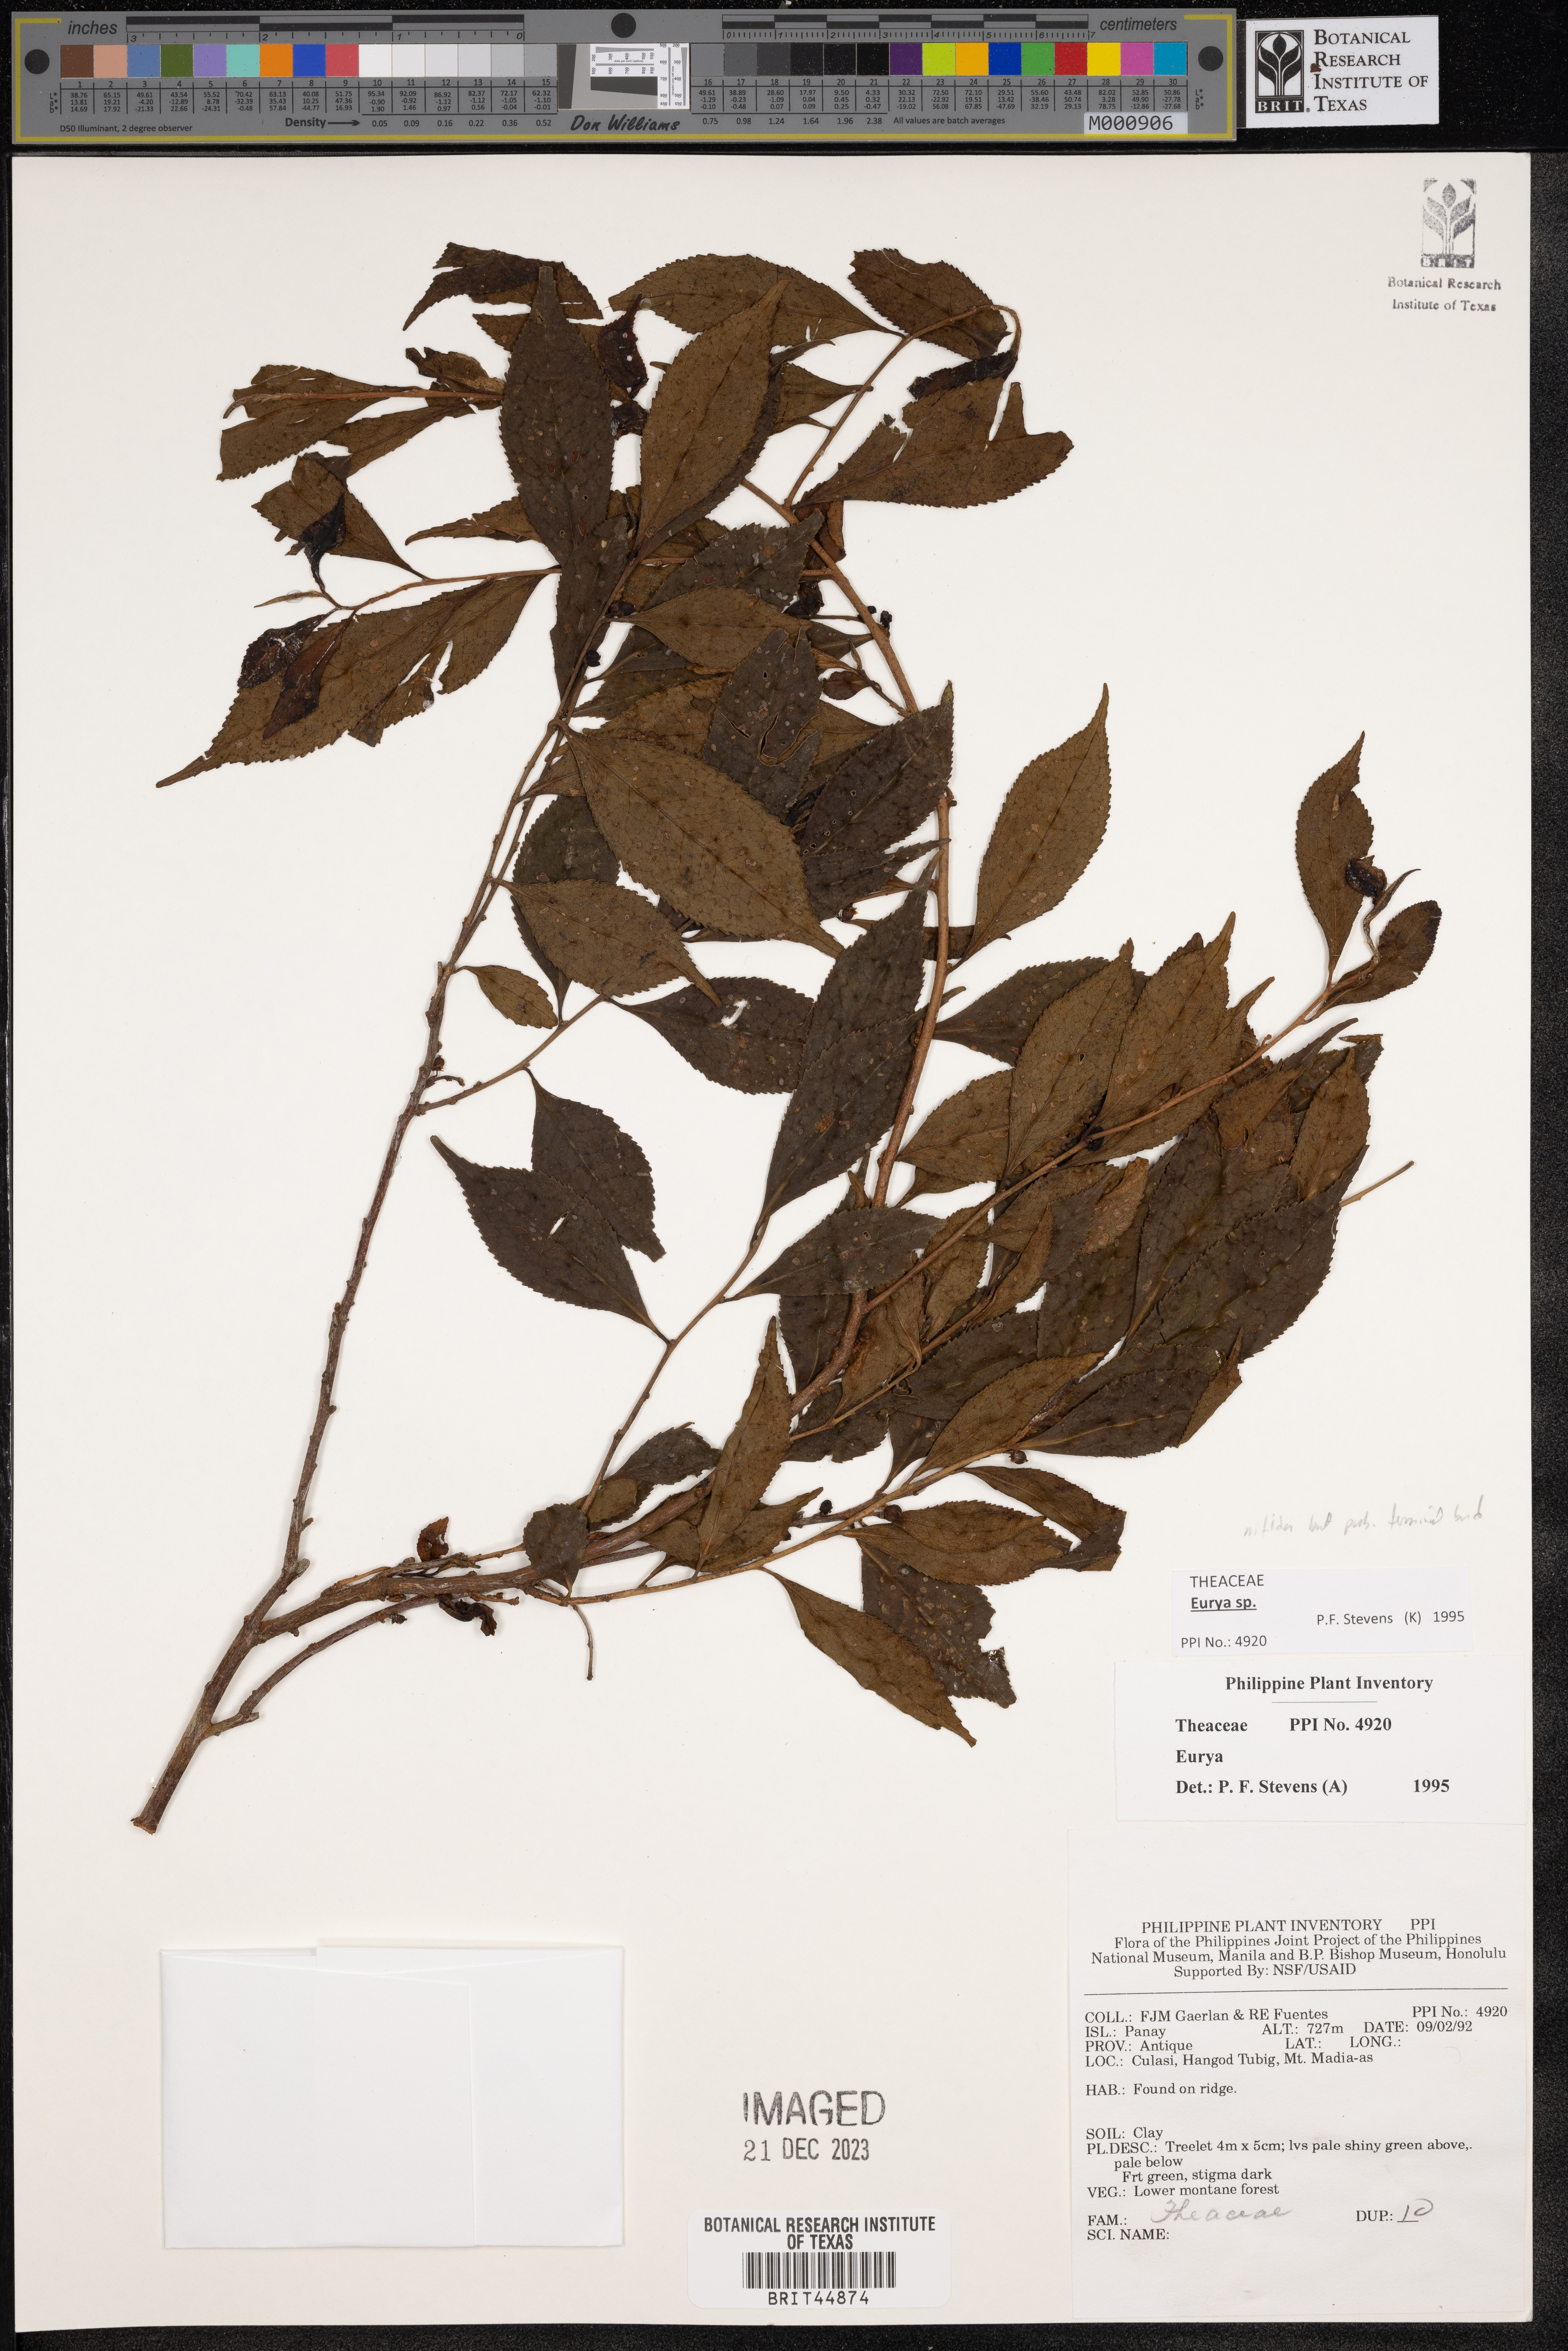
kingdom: Plantae
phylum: Tracheophyta
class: Magnoliopsida
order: Ericales
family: Pentaphylacaceae
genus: Eurya
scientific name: Eurya
